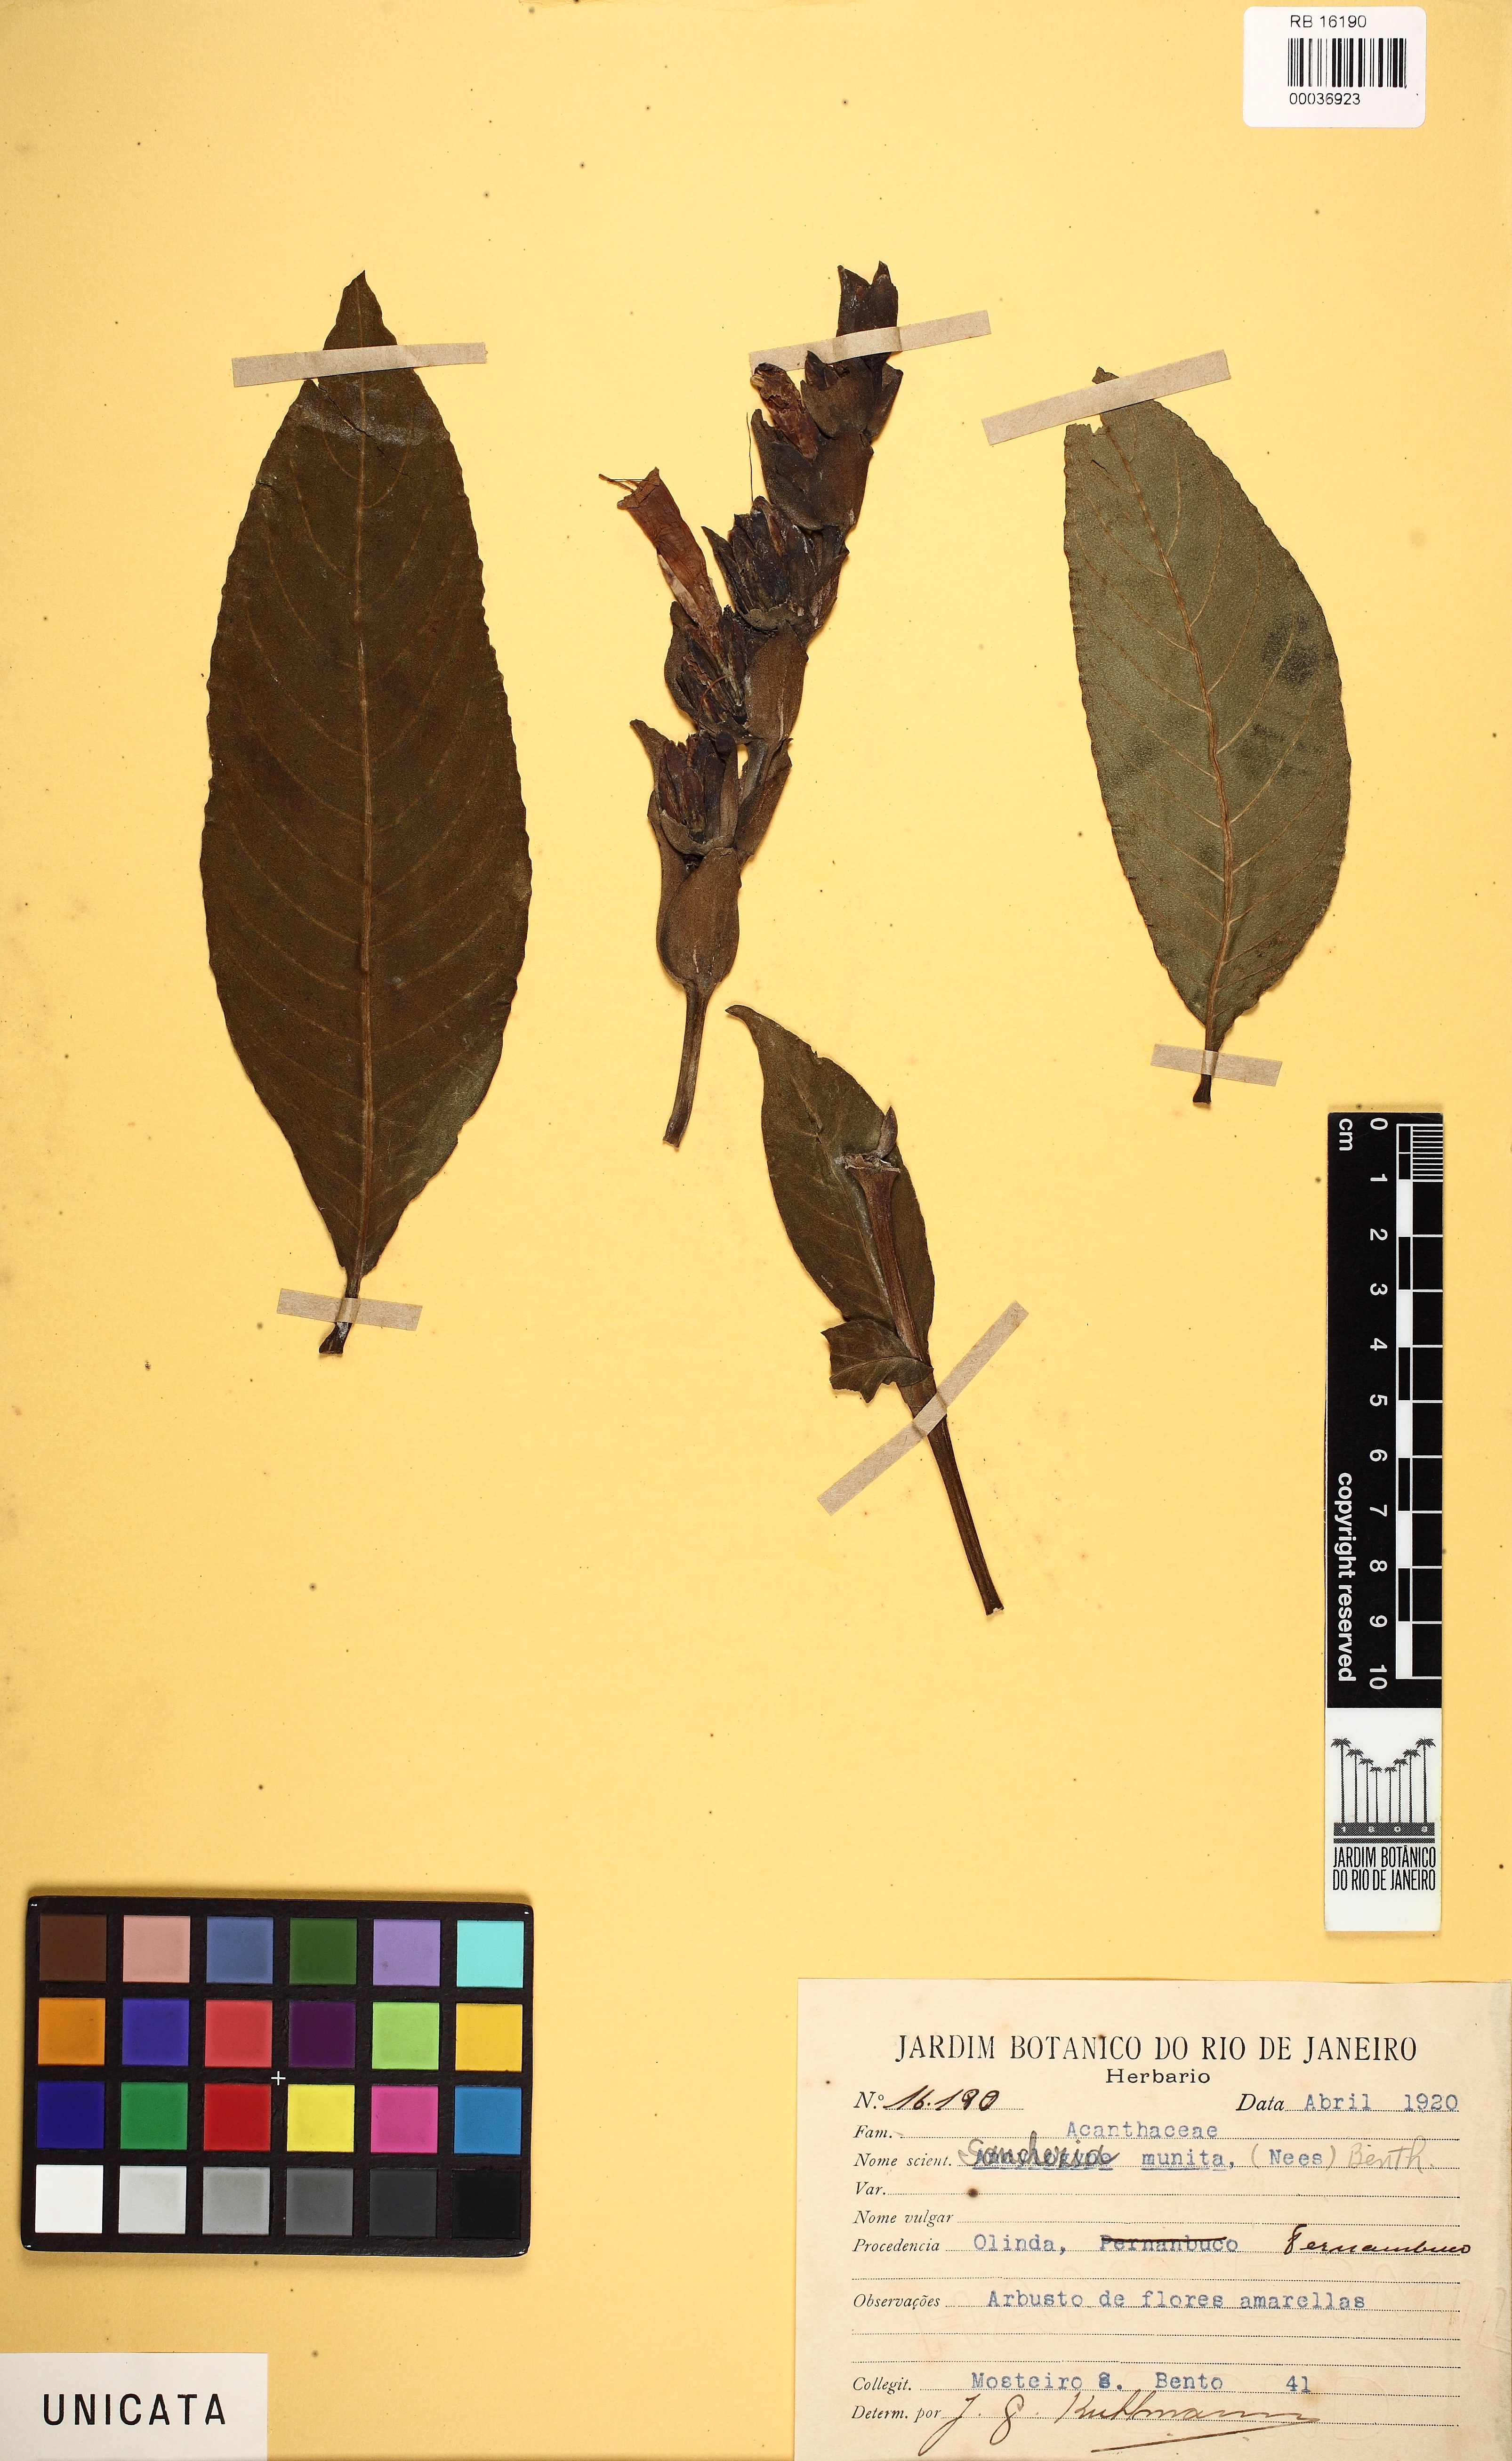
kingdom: Plantae
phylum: Tracheophyta
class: Magnoliopsida
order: Lamiales
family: Acanthaceae
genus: Sanchezia
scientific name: Sanchezia oblonga
